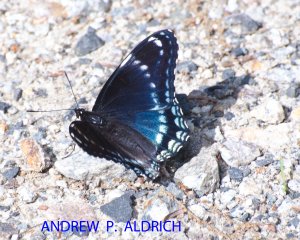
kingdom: Animalia
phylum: Arthropoda
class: Insecta
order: Lepidoptera
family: Nymphalidae
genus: Limenitis
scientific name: Limenitis astyanax
